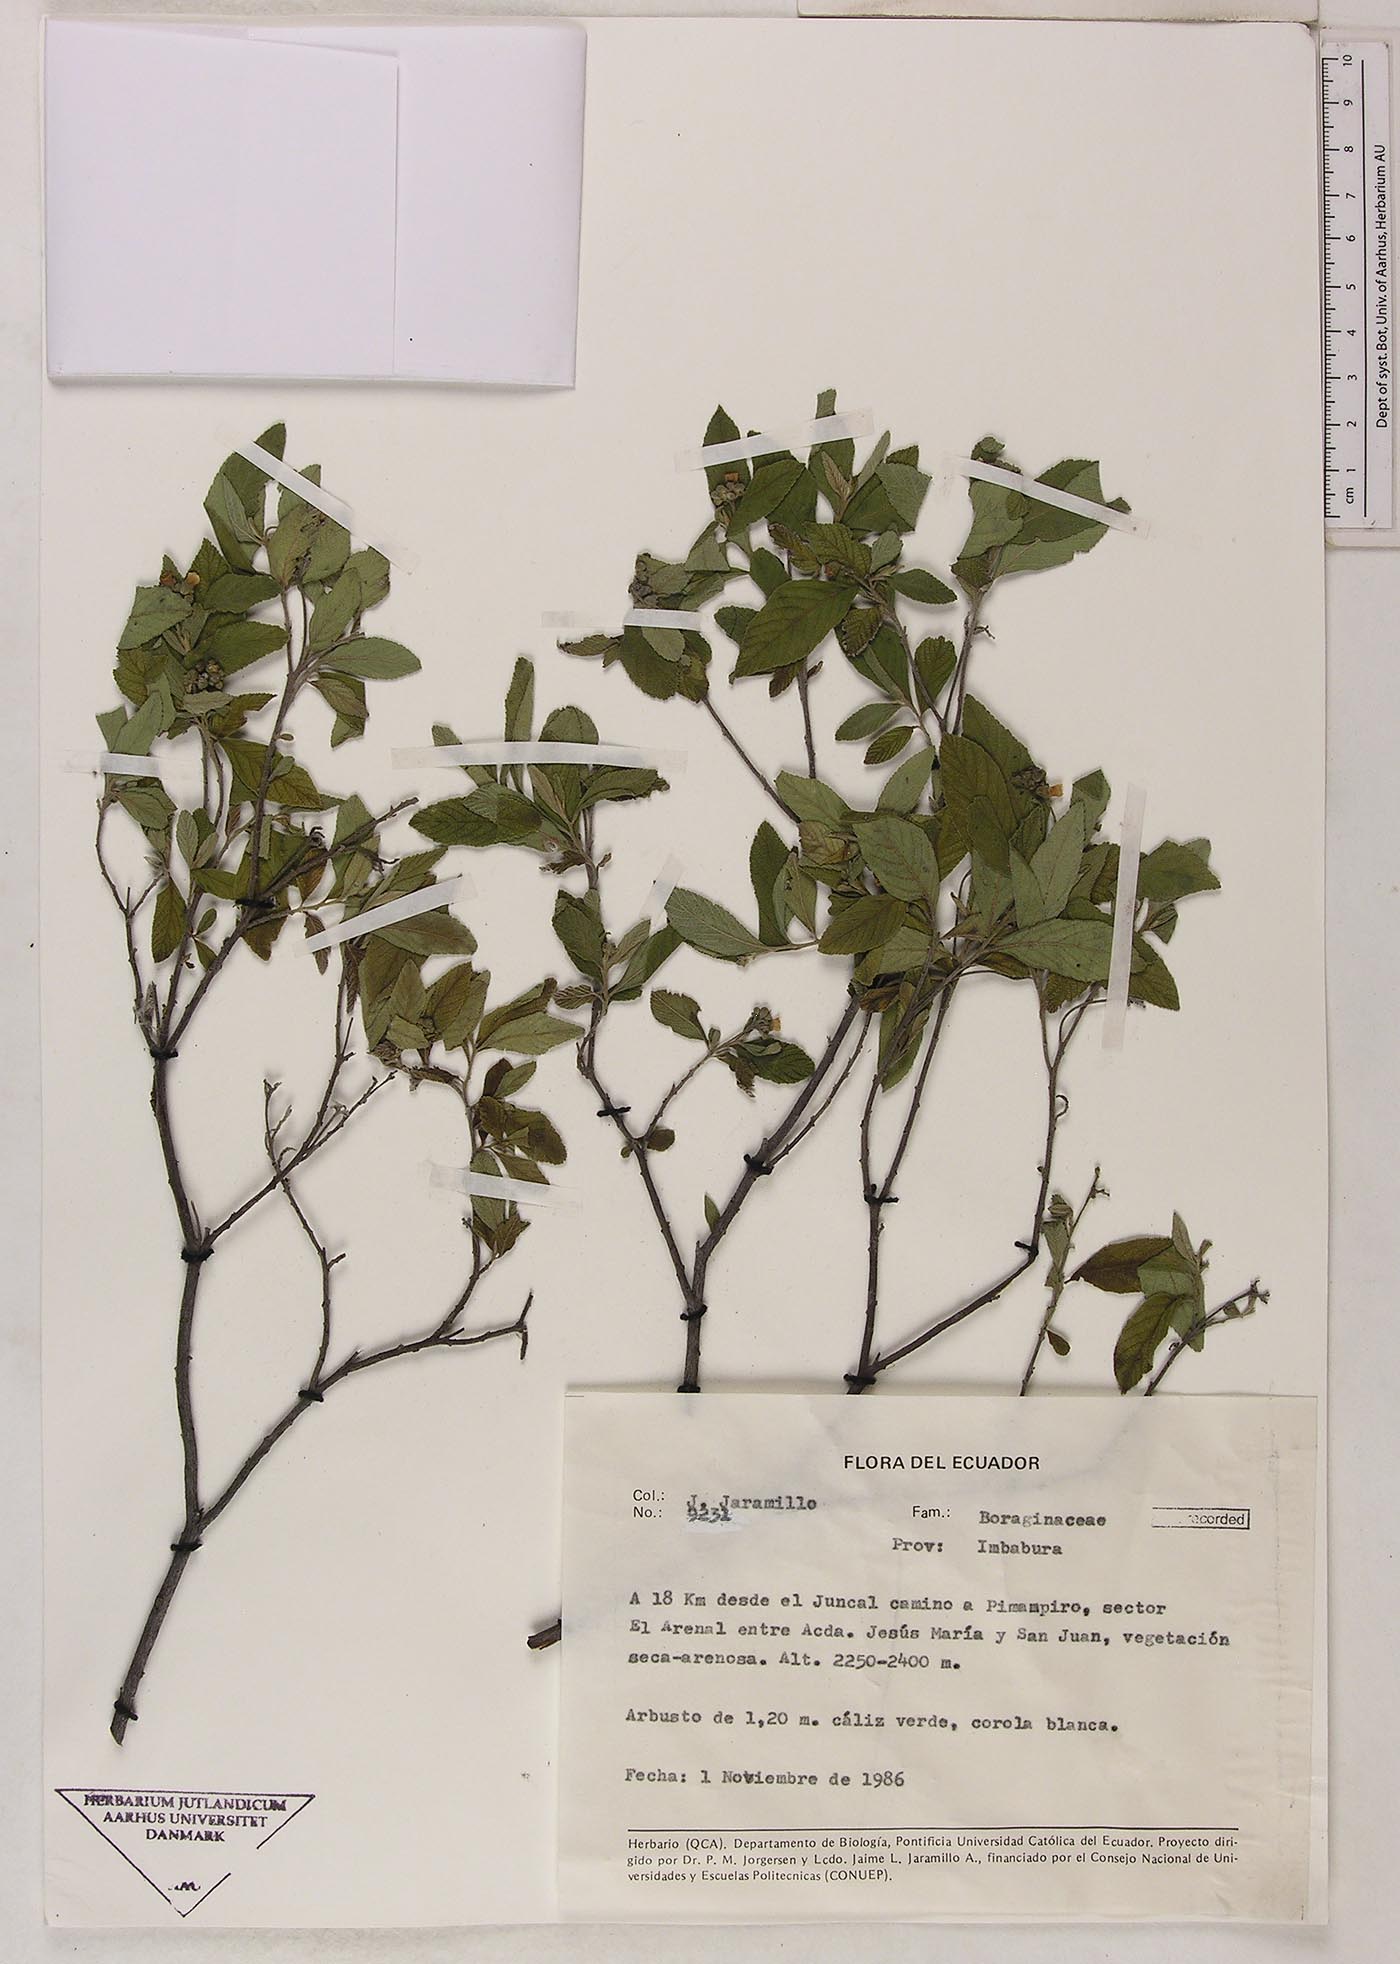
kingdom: Plantae
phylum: Tracheophyta
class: Magnoliopsida
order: Boraginales
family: Cordiaceae
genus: Varronia
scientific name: Varronia
